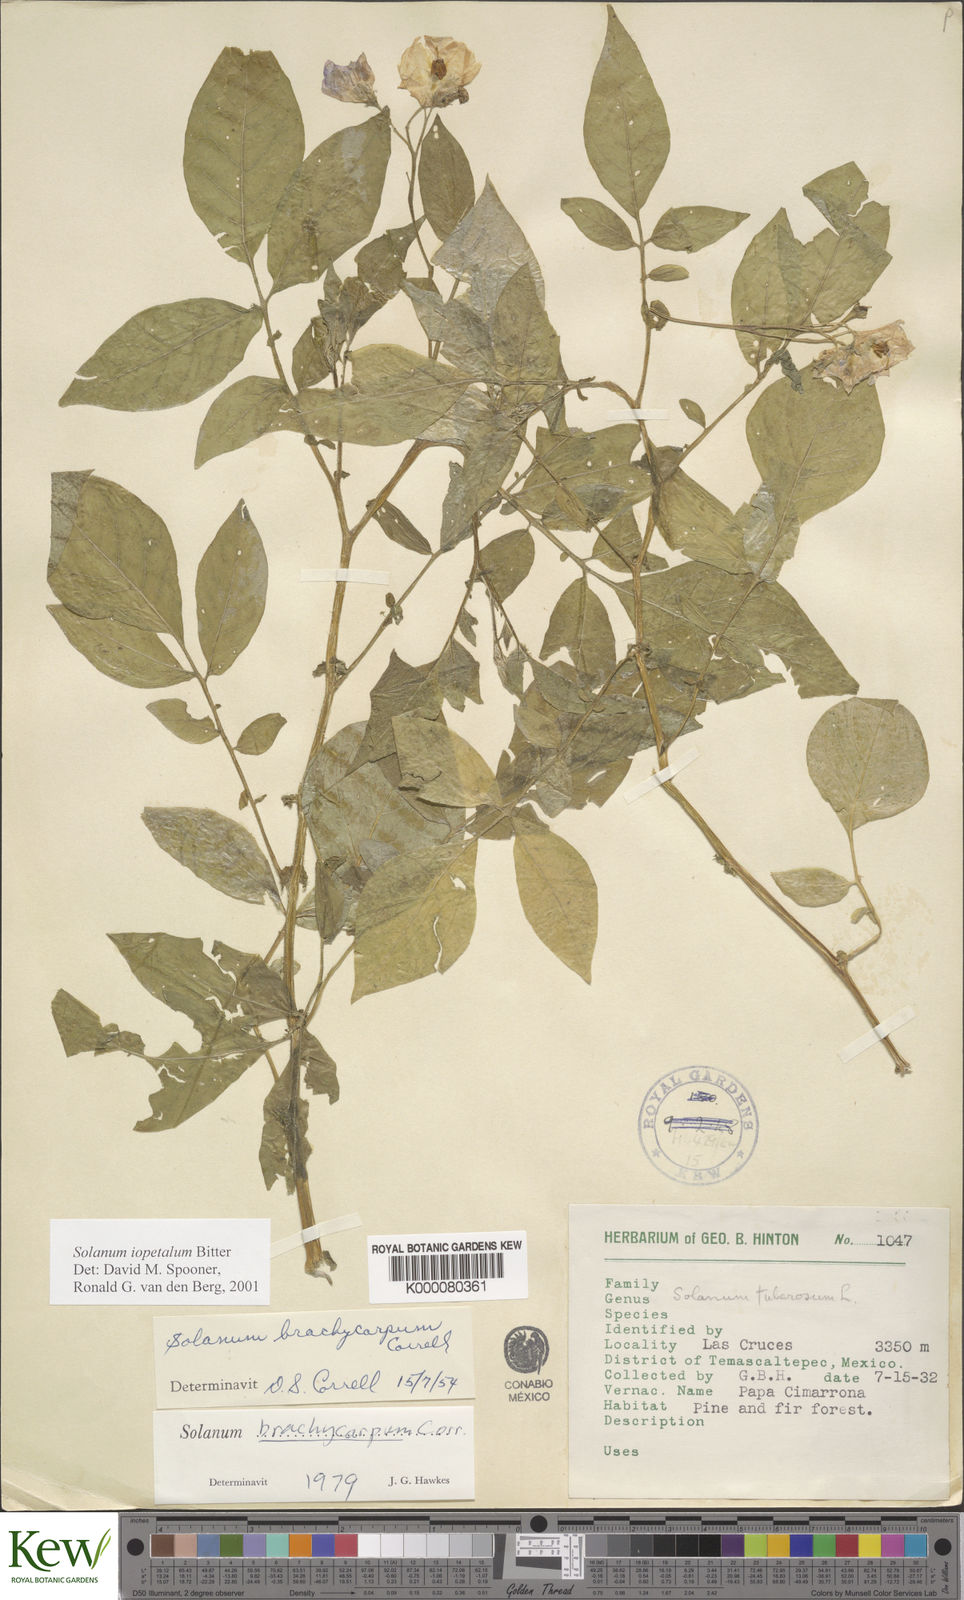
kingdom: Plantae
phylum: Tracheophyta
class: Magnoliopsida
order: Solanales
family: Solanaceae
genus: Solanum
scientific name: Solanum iopetalum
